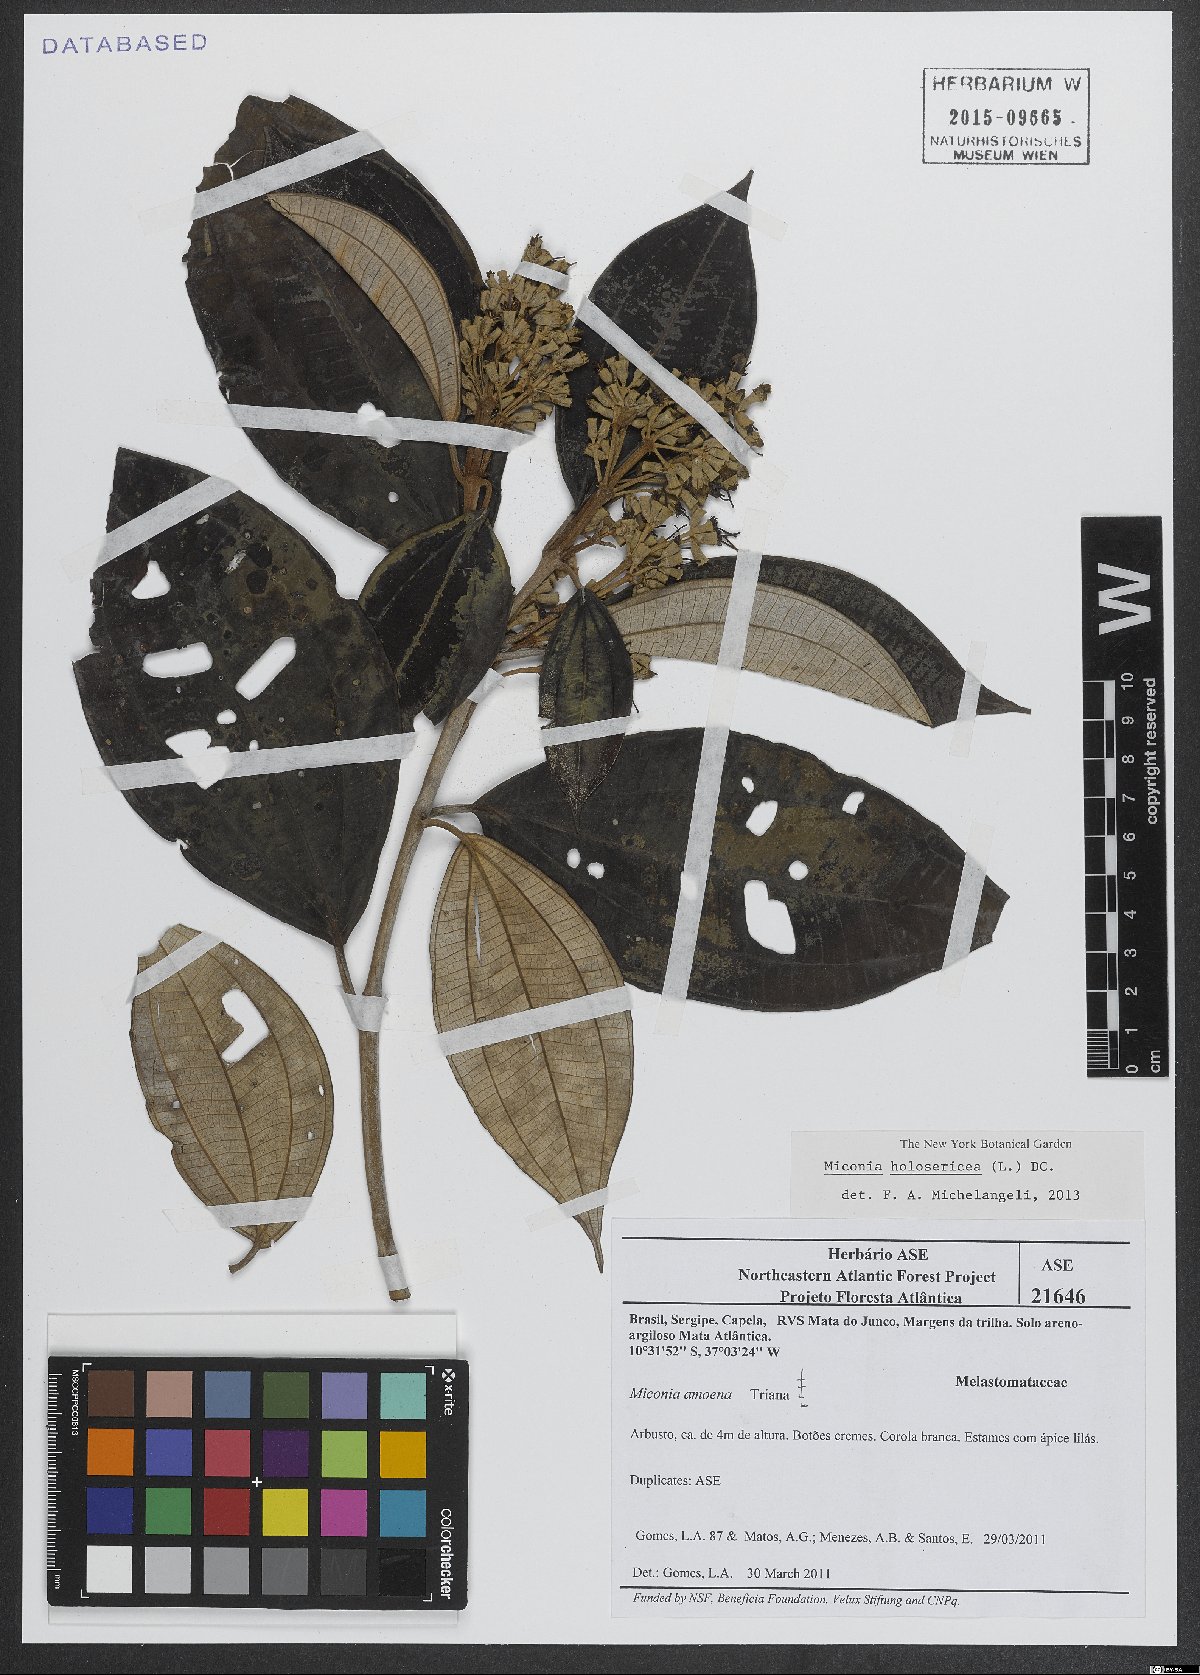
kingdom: Plantae
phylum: Tracheophyta
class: Magnoliopsida
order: Myrtales
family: Melastomataceae
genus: Miconia
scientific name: Miconia holosericea
